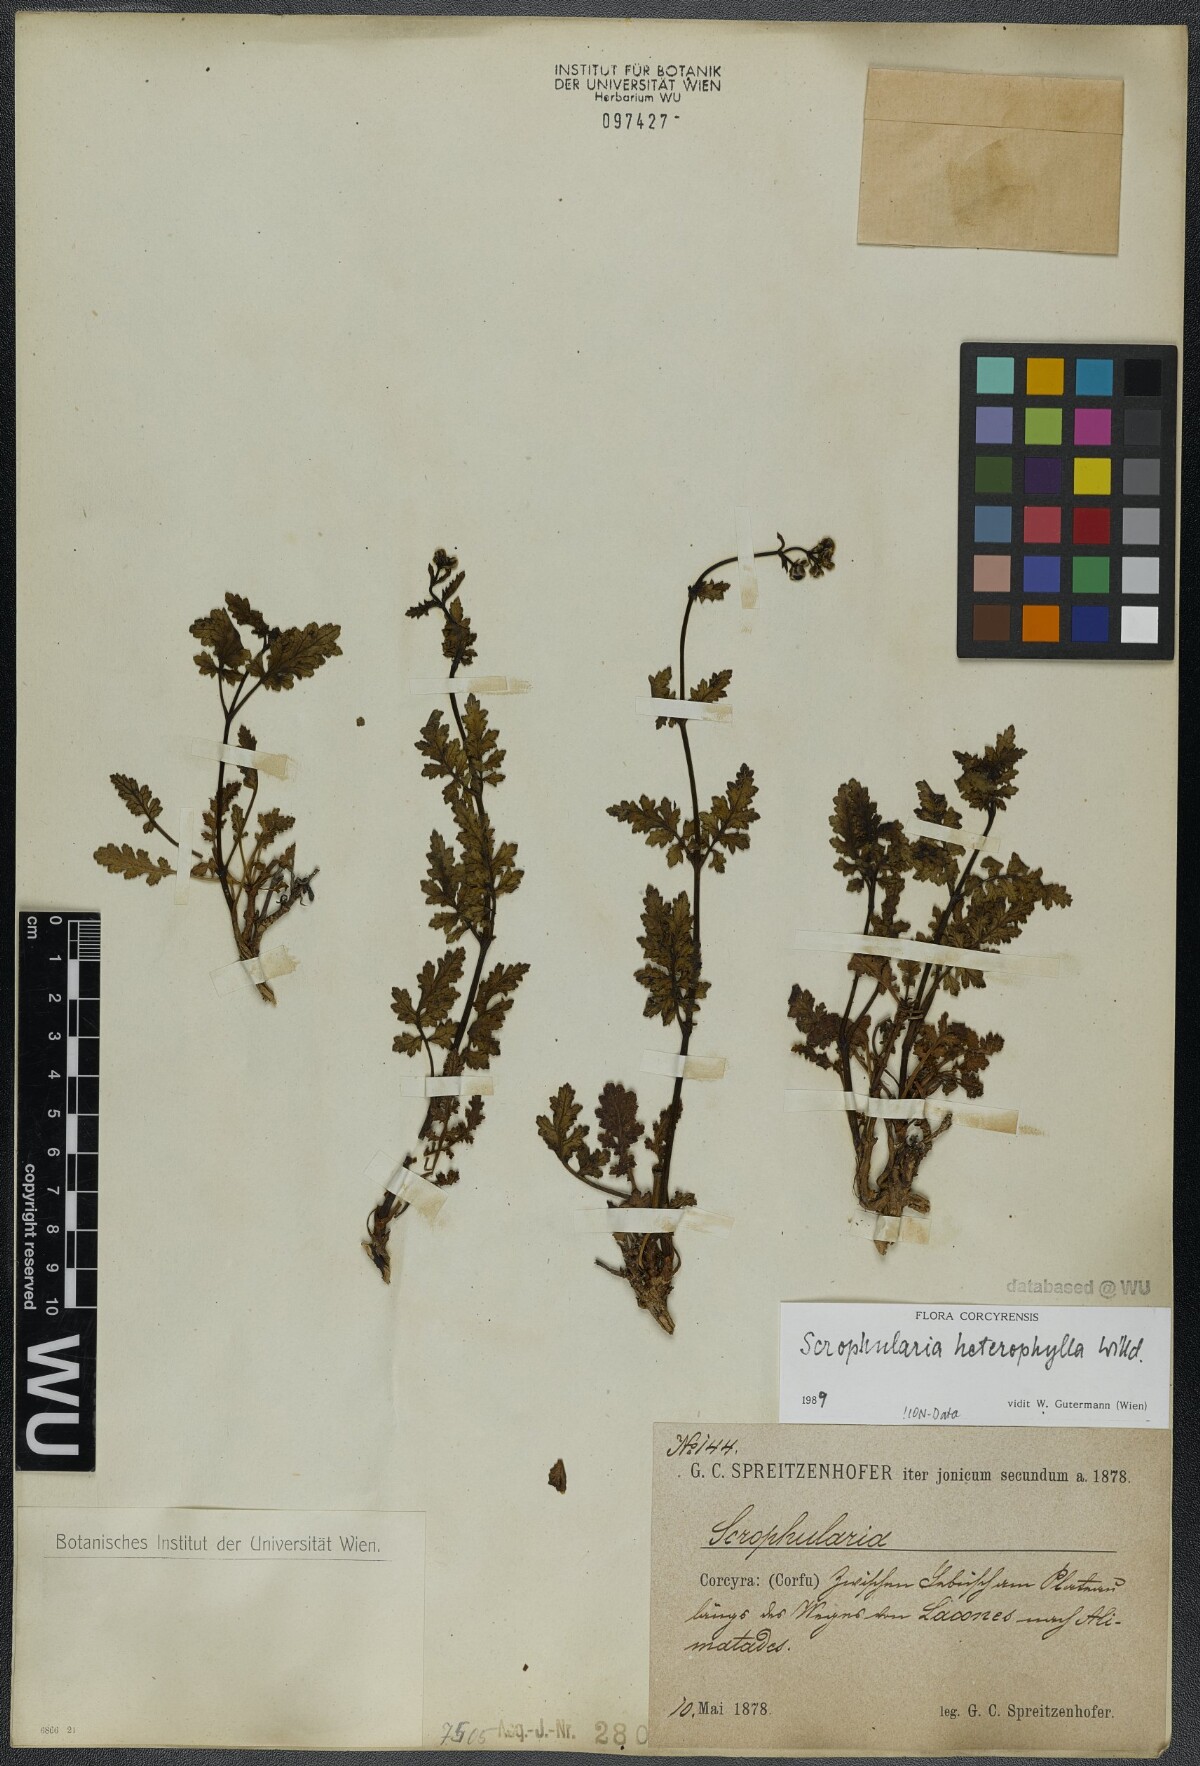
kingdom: Plantae
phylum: Tracheophyta
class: Magnoliopsida
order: Lamiales
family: Scrophulariaceae
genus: Scrophularia
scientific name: Scrophularia heterophylla
